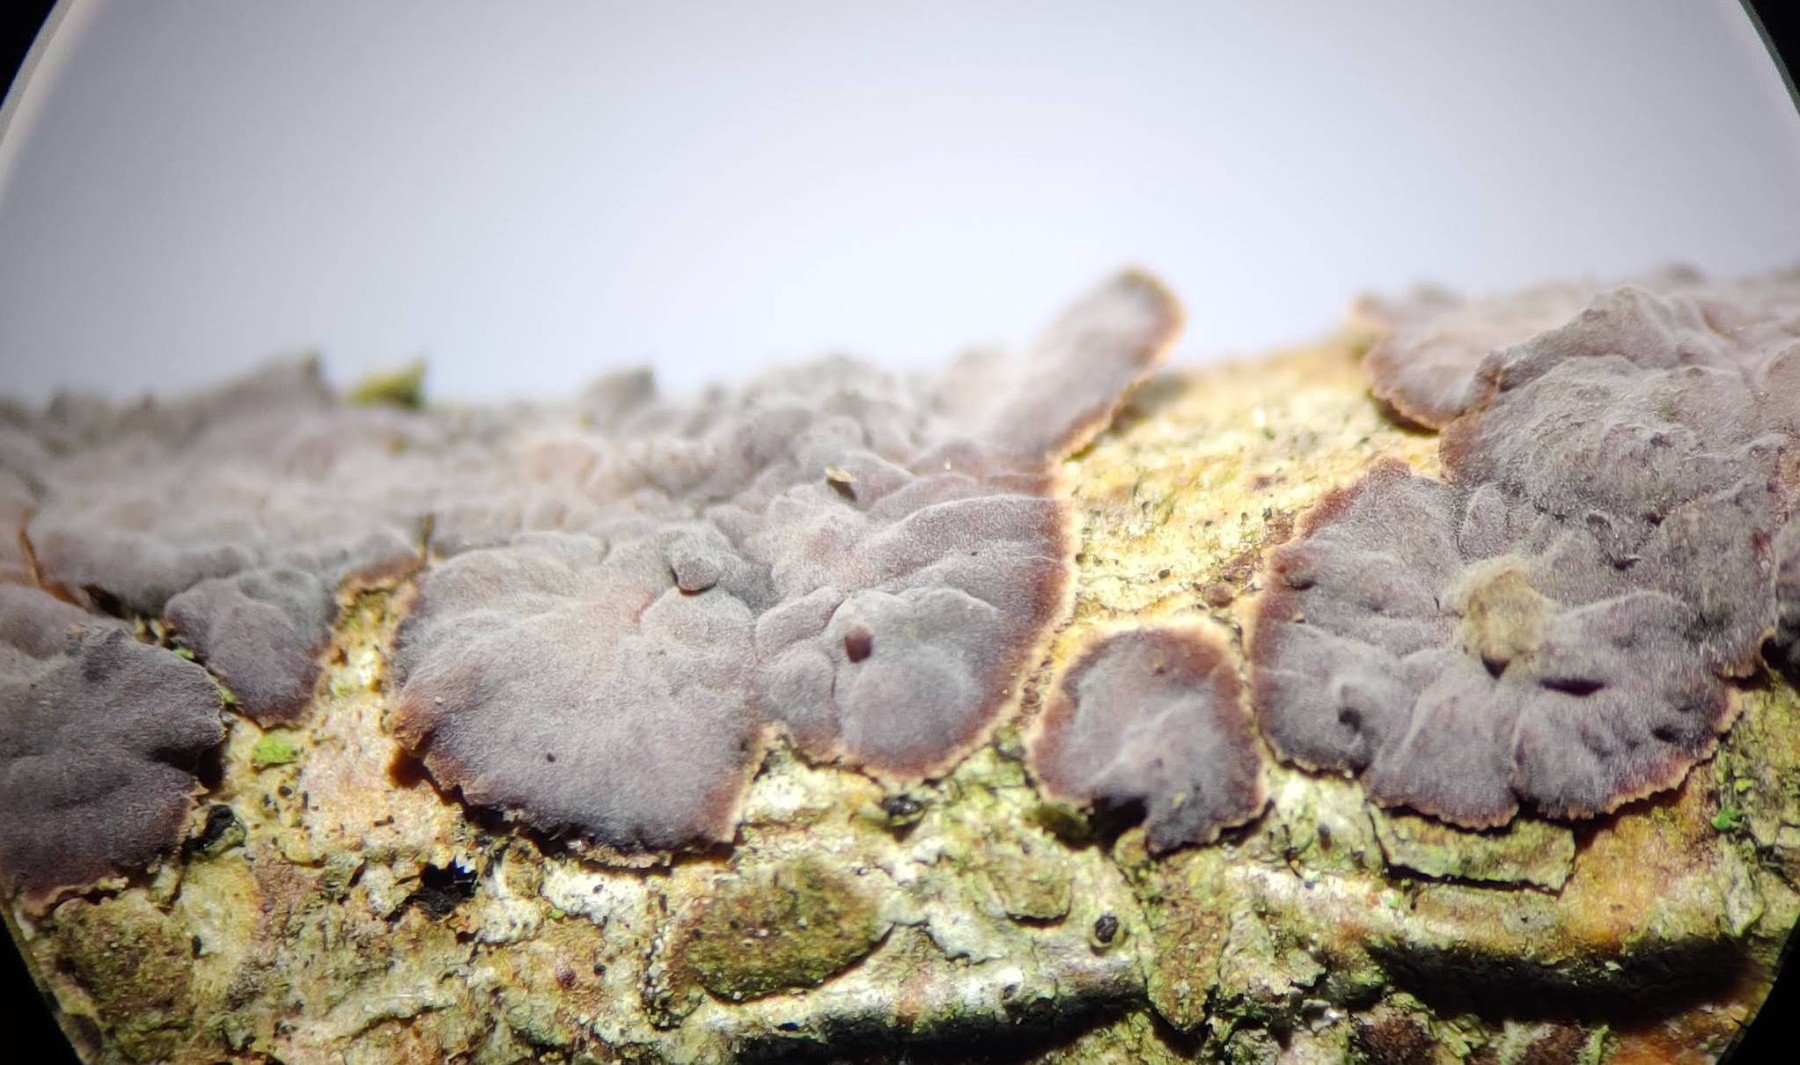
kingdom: Fungi
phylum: Basidiomycota
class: Agaricomycetes
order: Russulales
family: Peniophoraceae
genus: Peniophora
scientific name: Peniophora pini
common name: fyrre-voksskind
